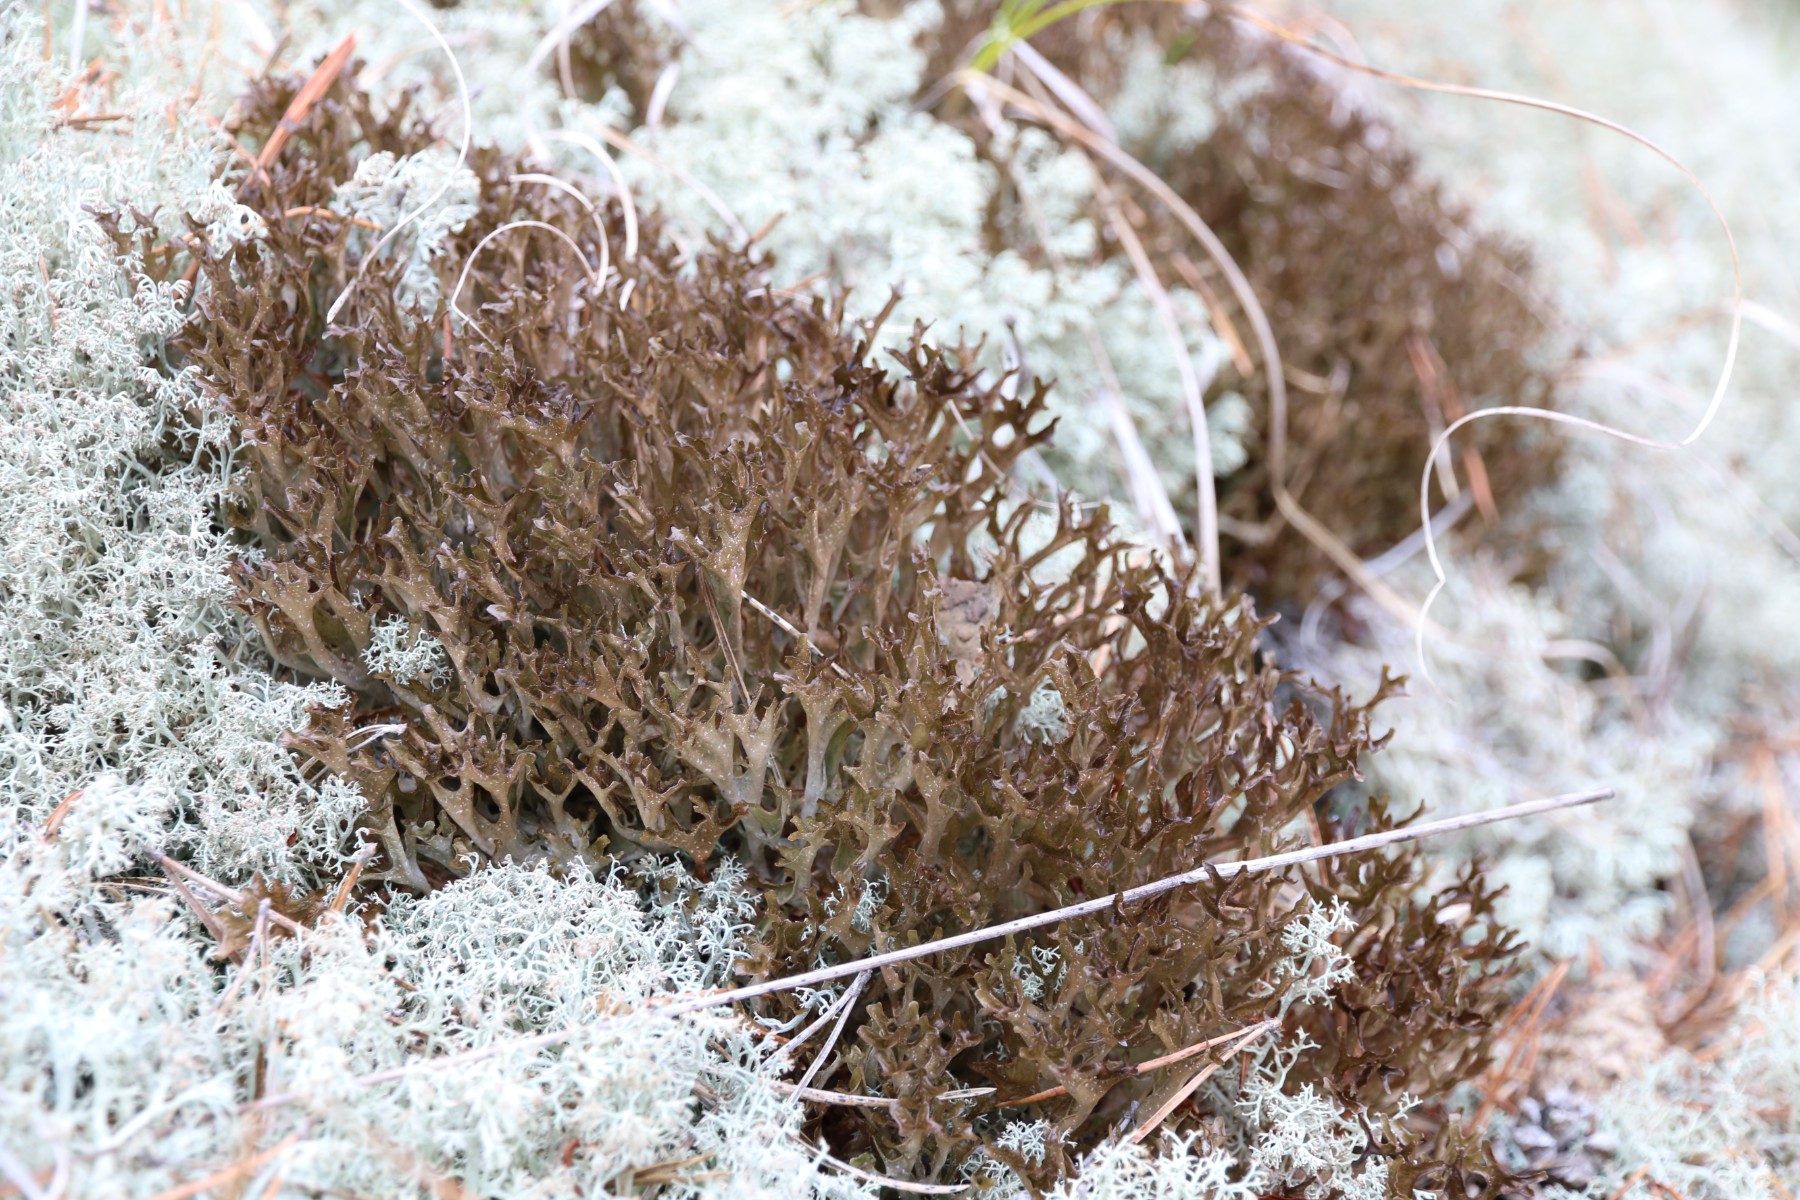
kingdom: Fungi
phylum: Ascomycota
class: Lecanoromycetes
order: Lecanorales
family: Parmeliaceae
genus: Cetraria
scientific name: Cetraria islandica
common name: islandsk kruslav
